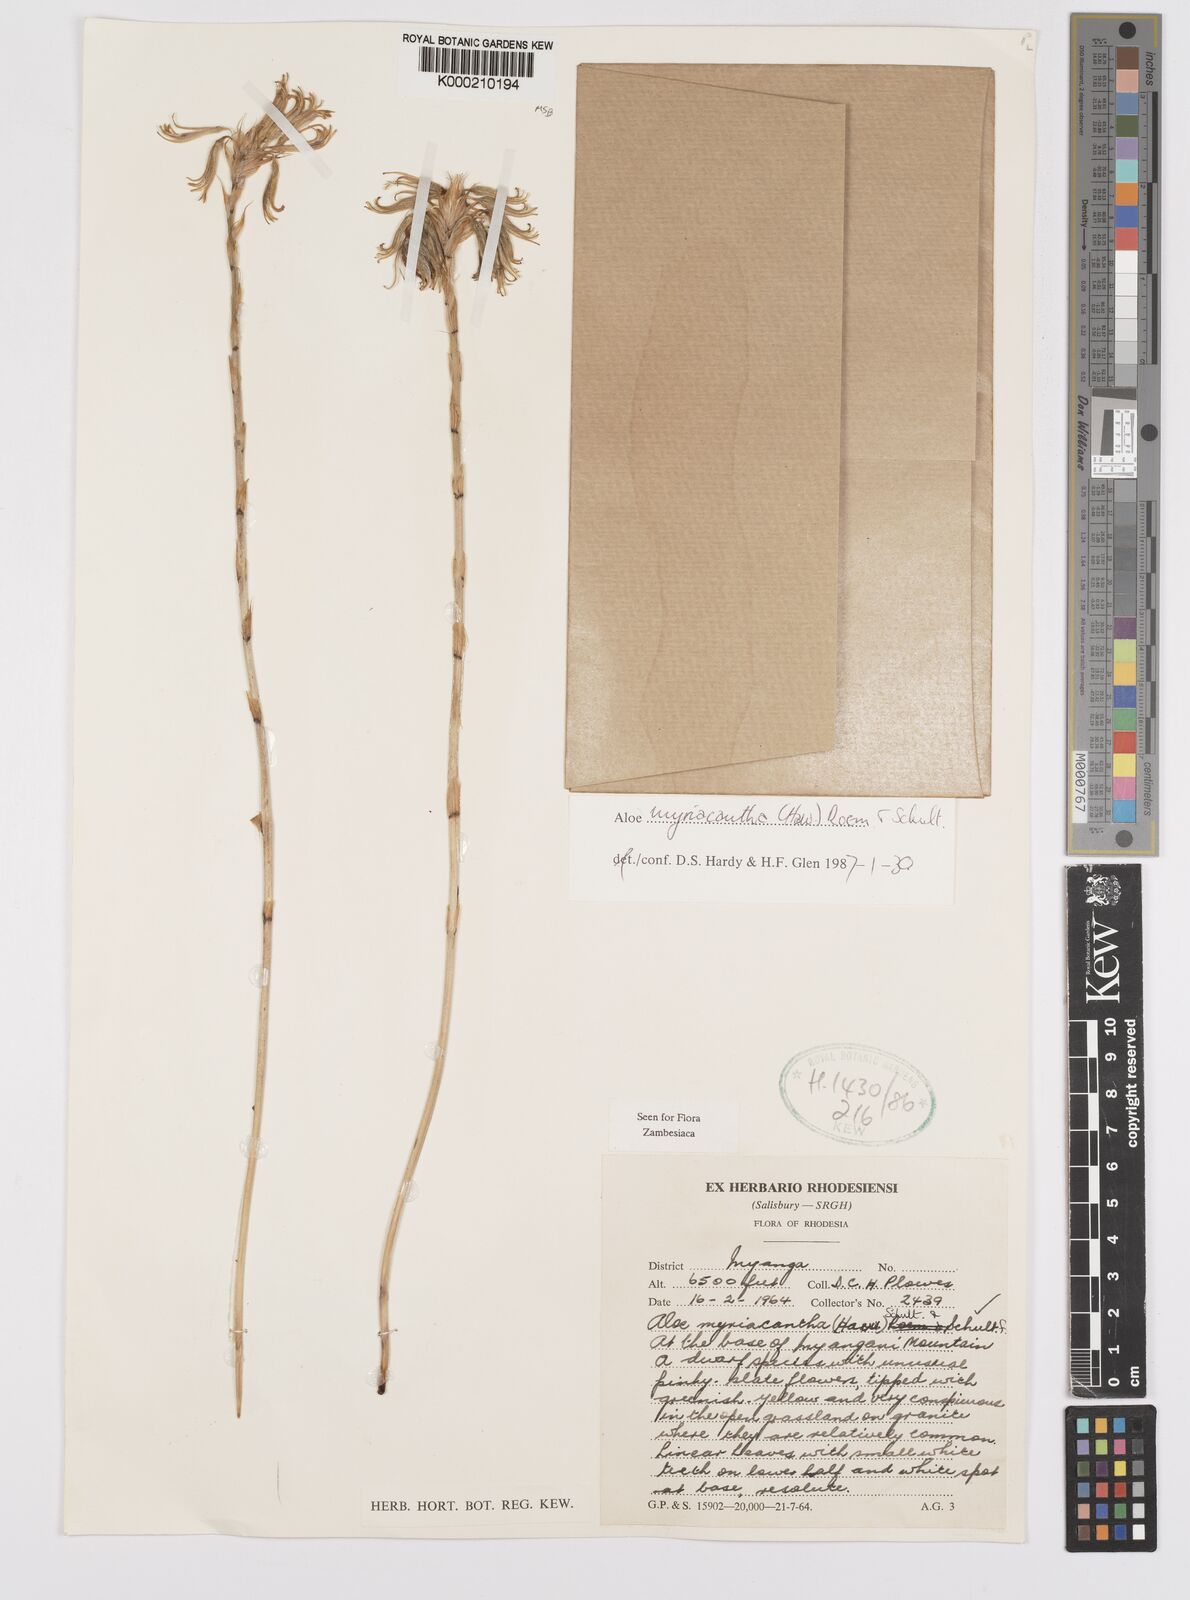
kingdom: Plantae
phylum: Tracheophyta
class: Liliopsida
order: Asparagales
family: Asphodelaceae
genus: Aloe
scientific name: Aloe
